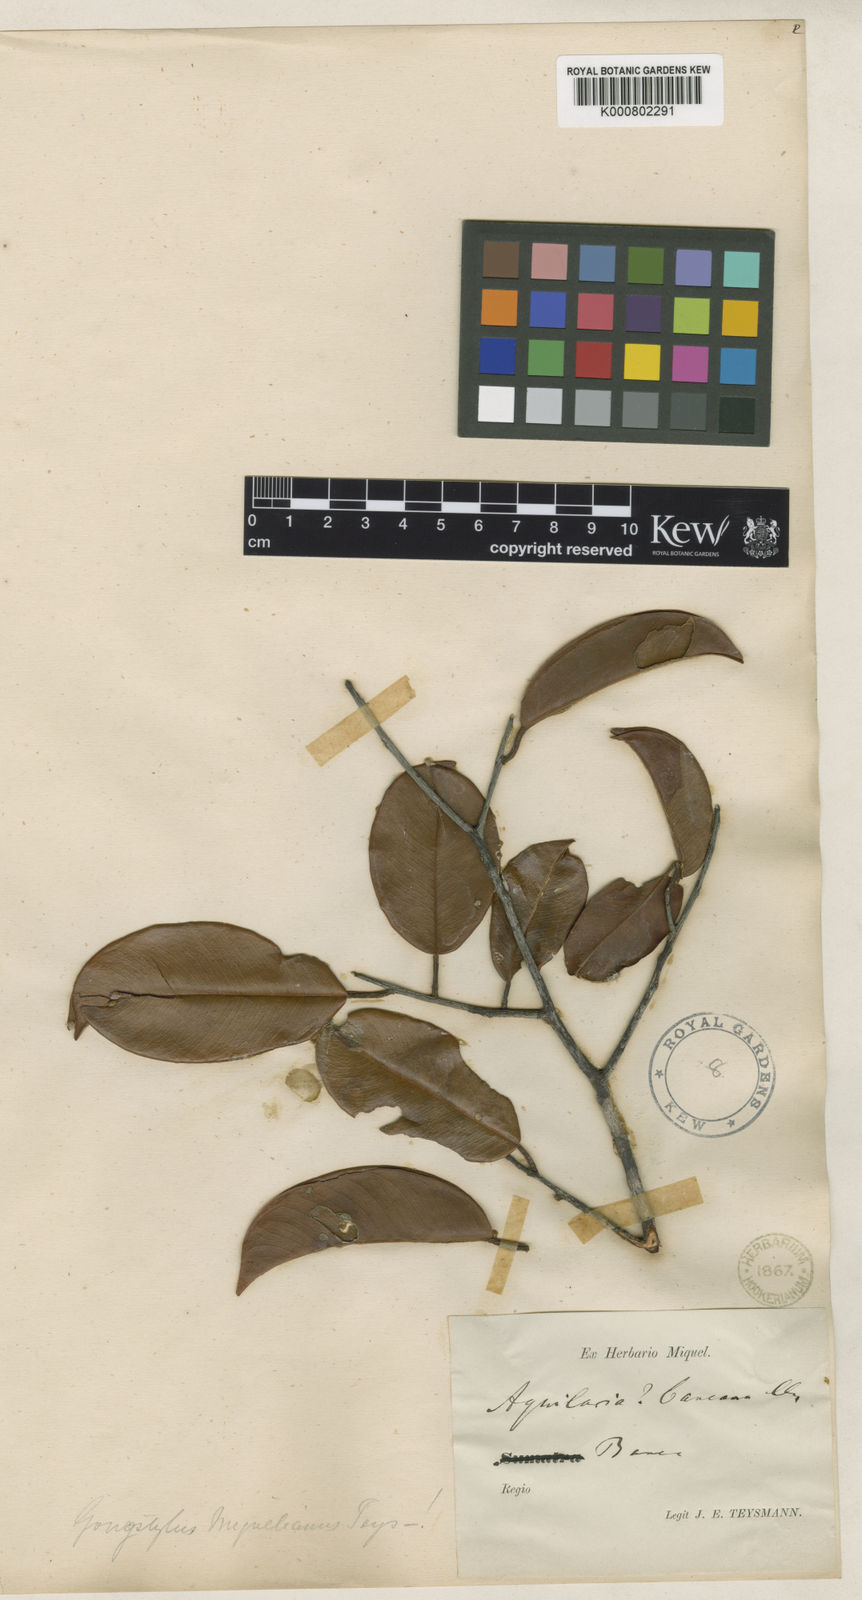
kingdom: Plantae
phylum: Tracheophyta
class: Magnoliopsida
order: Malvales
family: Thymelaeaceae
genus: Gonystylus
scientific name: Gonystylus bancanus
